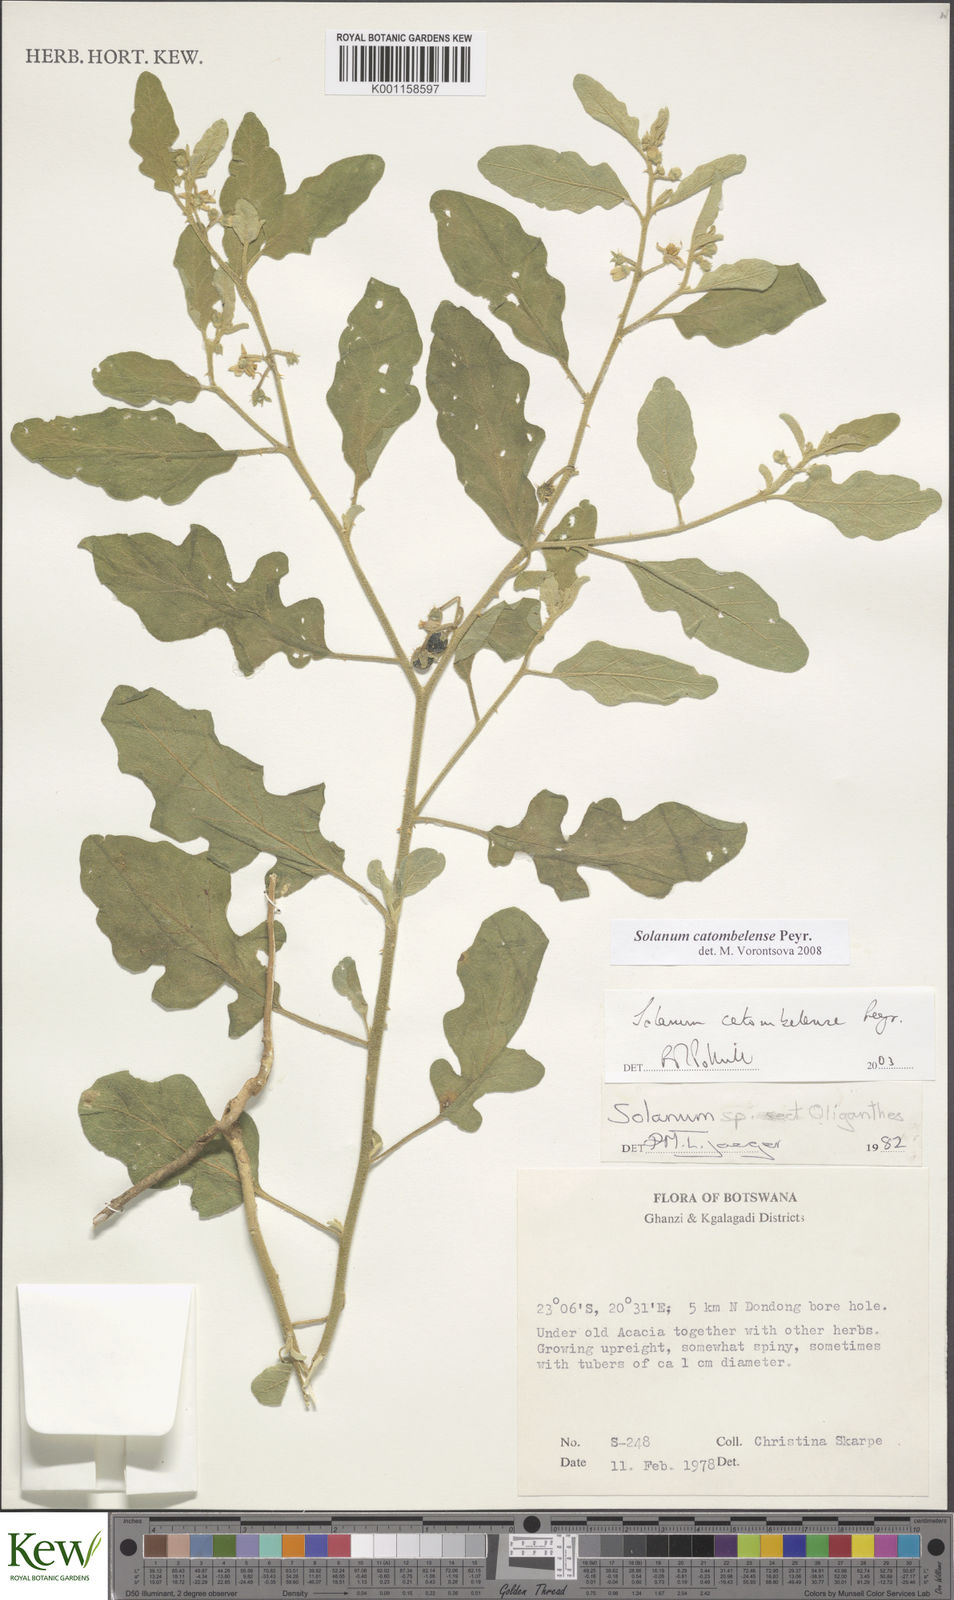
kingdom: Plantae
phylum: Tracheophyta
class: Magnoliopsida
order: Solanales
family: Solanaceae
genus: Solanum
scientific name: Solanum catombelense
